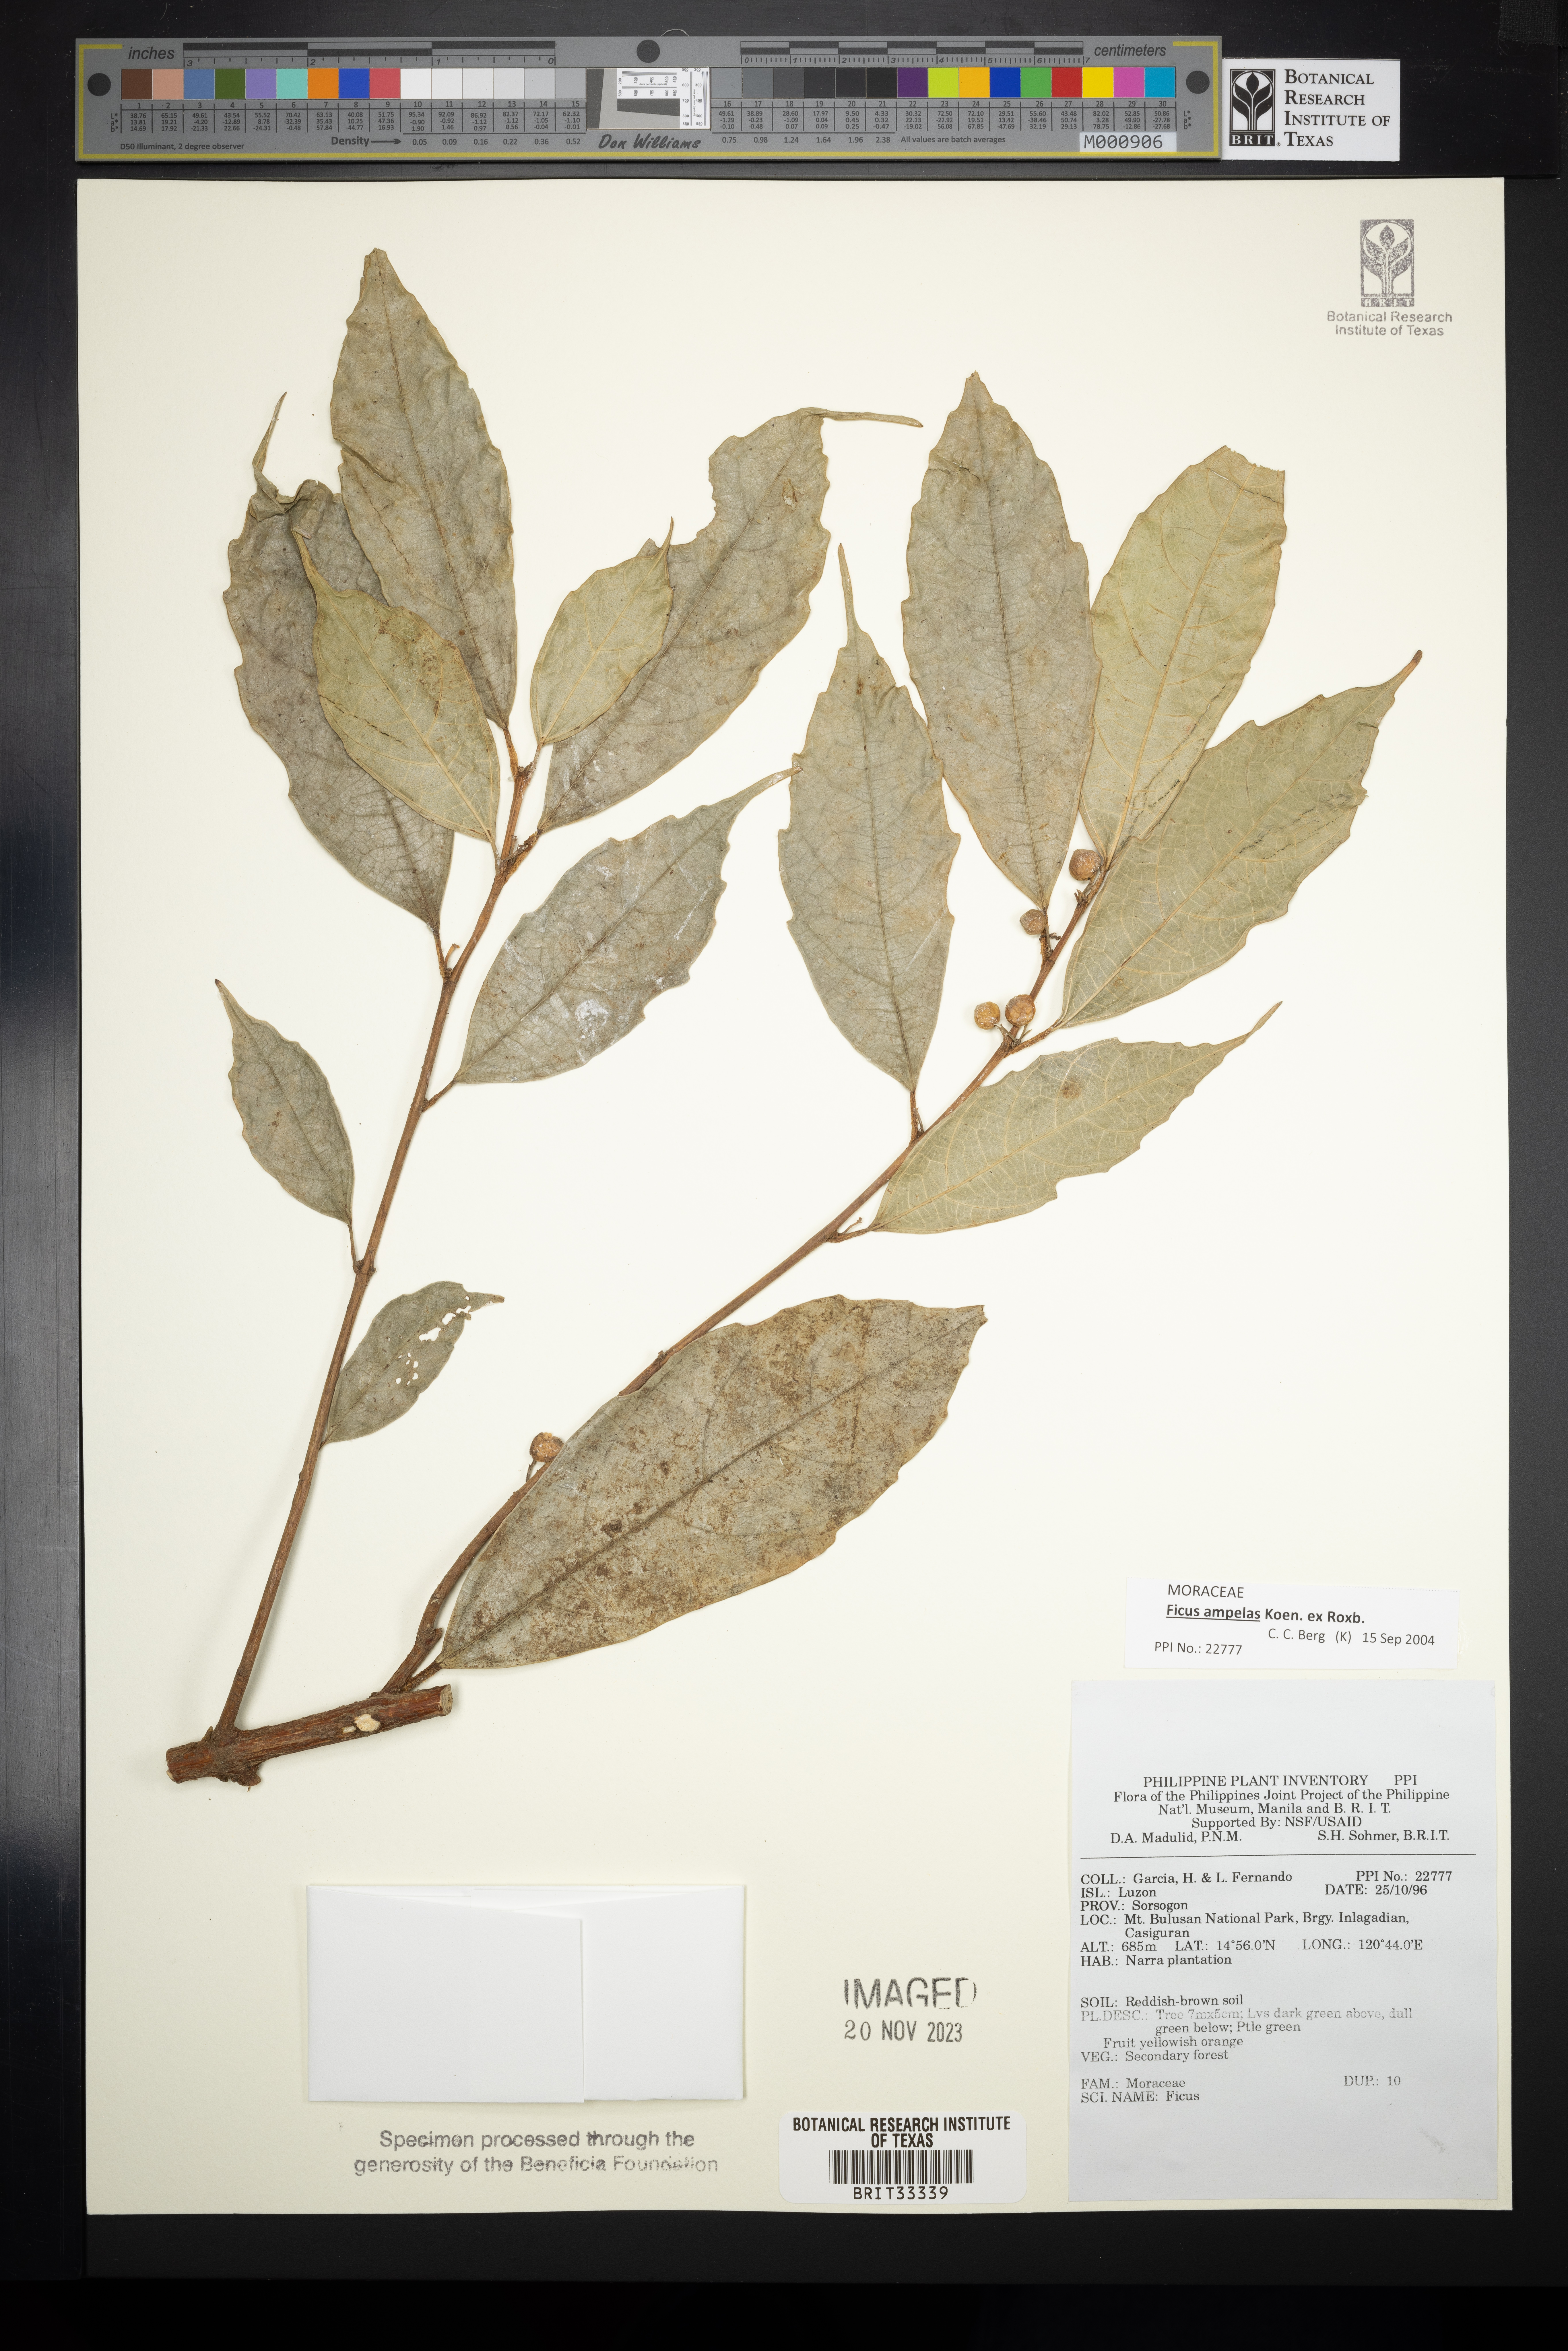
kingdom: Plantae
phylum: Tracheophyta
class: Magnoliopsida
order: Rosales
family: Moraceae
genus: Ficus
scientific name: Ficus
